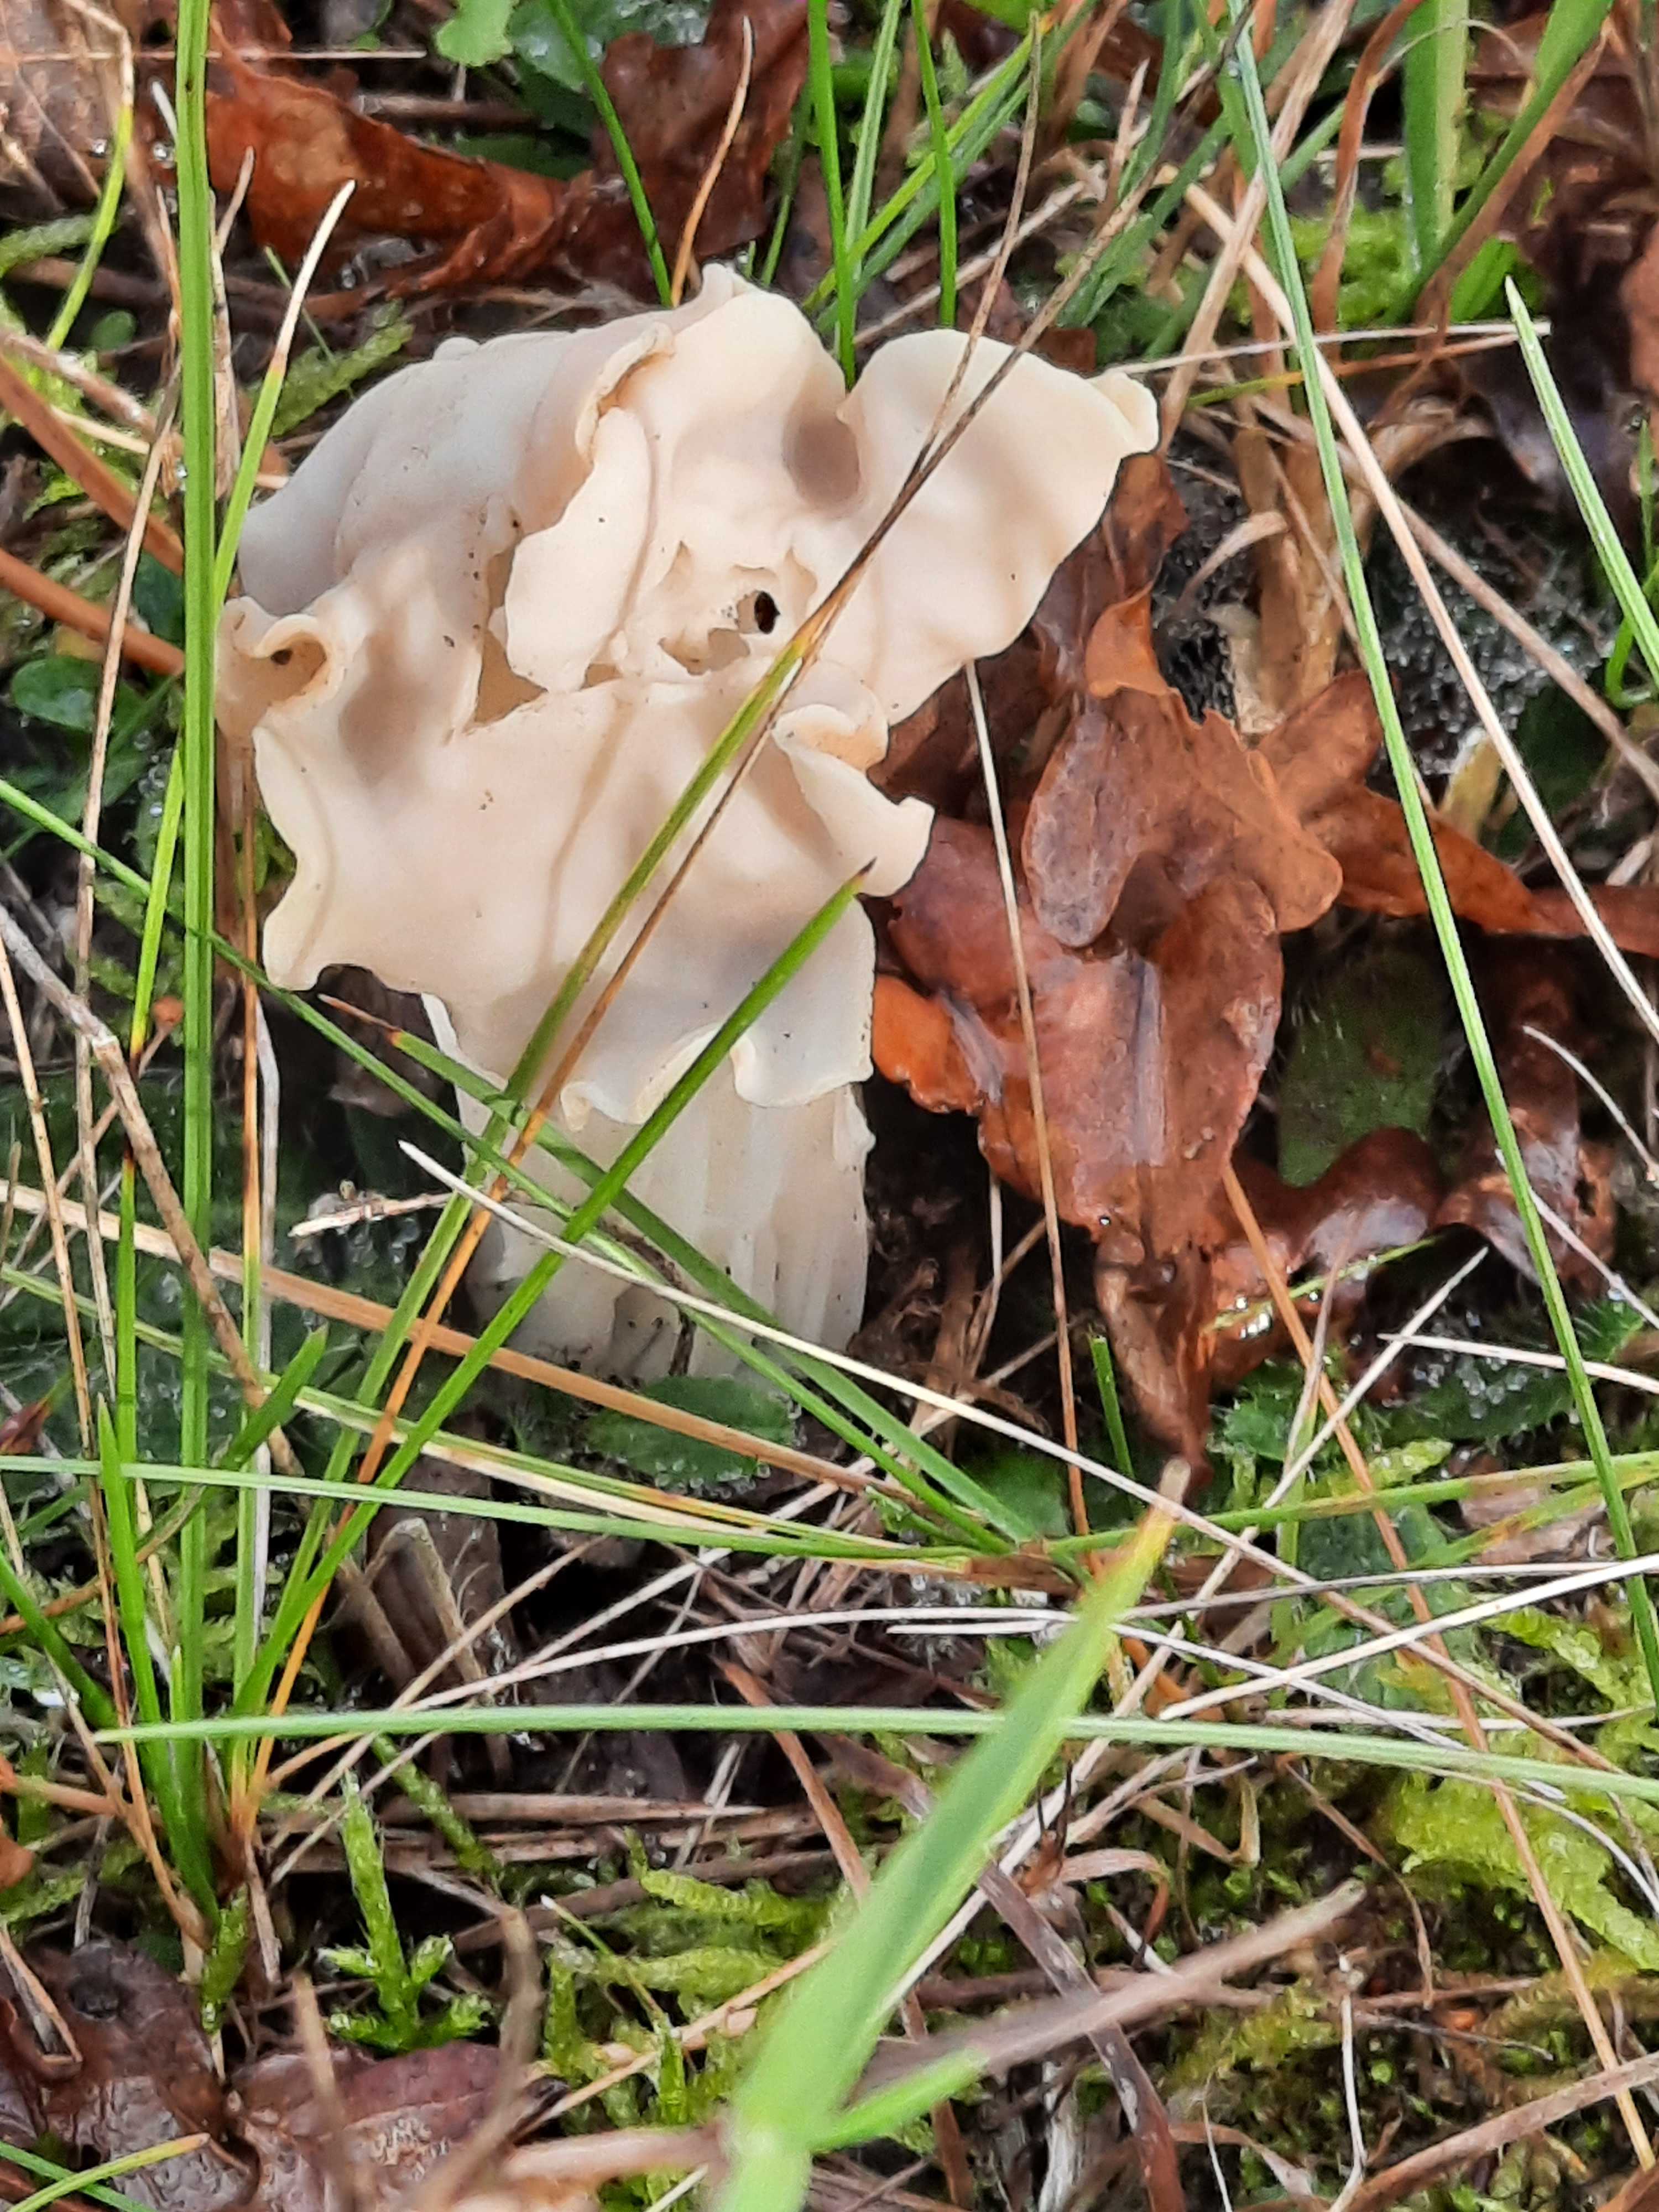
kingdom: Fungi
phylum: Ascomycota
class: Pezizomycetes
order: Pezizales
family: Helvellaceae
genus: Helvella
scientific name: Helvella crispa
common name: kruset foldhat
